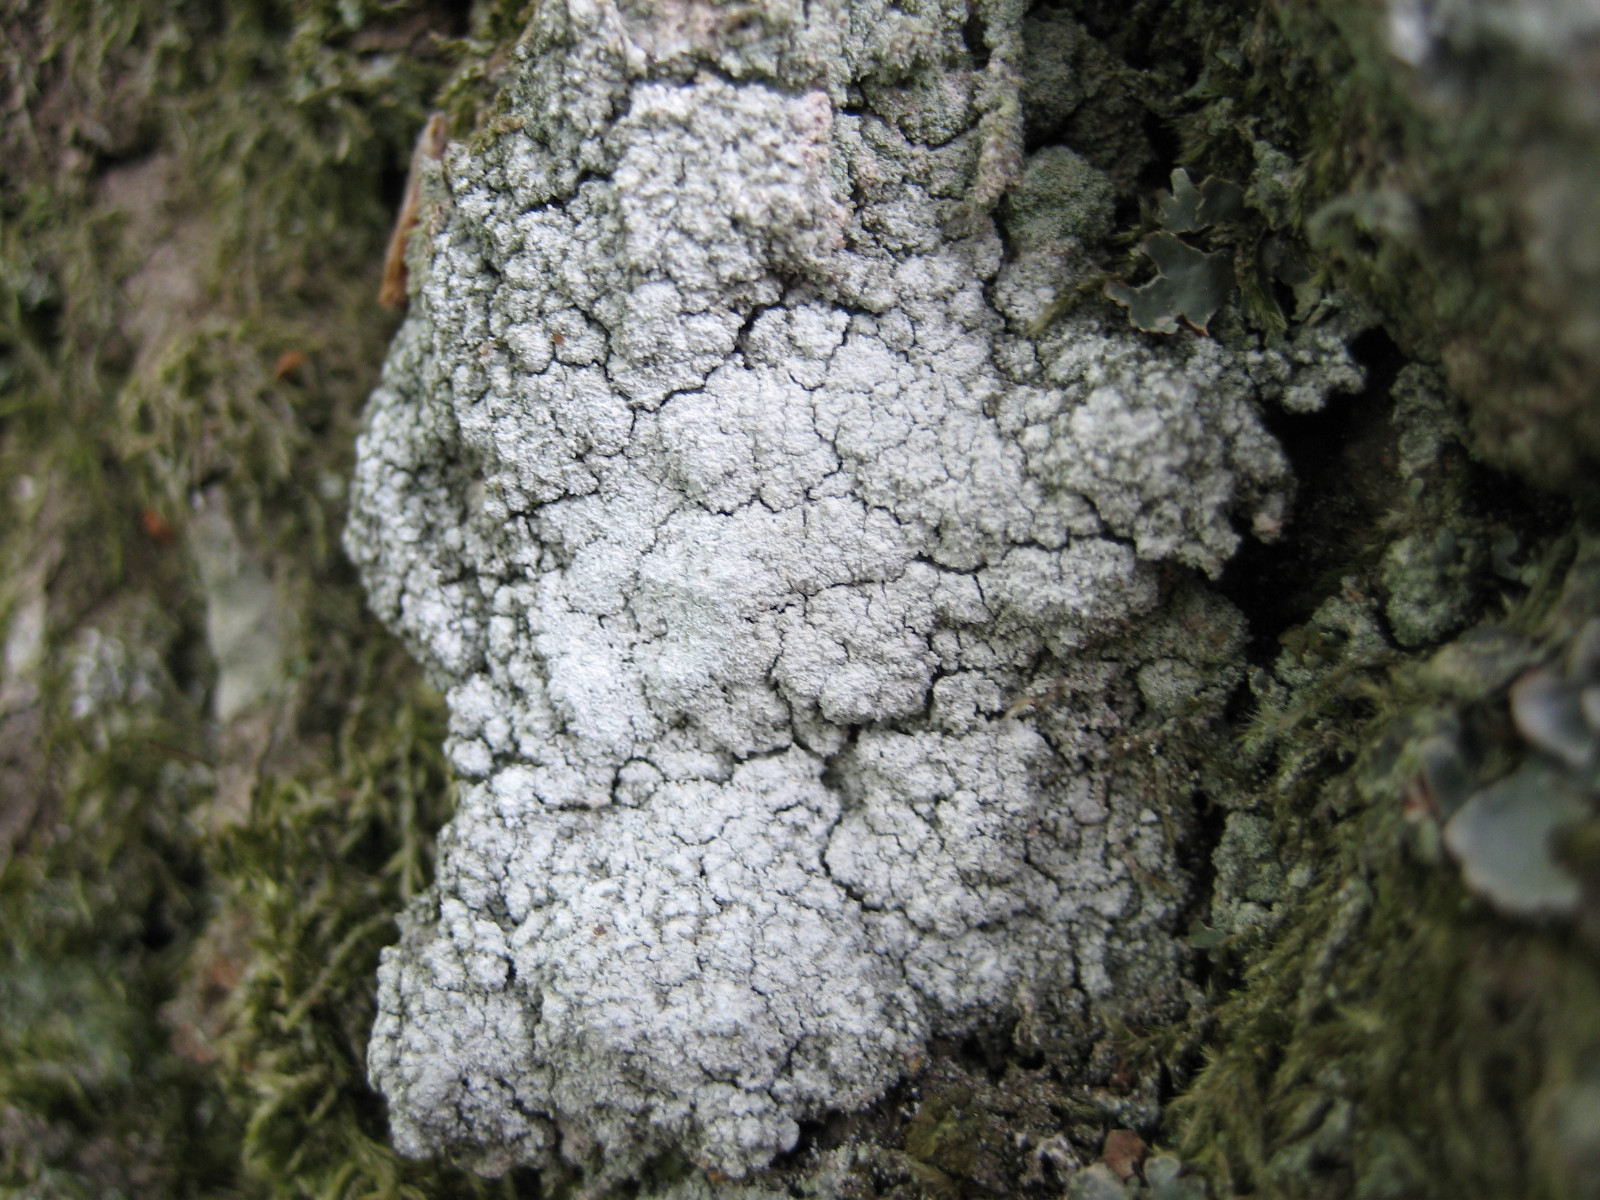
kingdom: Fungi
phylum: Ascomycota
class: Lecanoromycetes
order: Pertusariales
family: Pertusariaceae
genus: Lepra
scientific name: Lepra amara
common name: bitter prikvortelav
